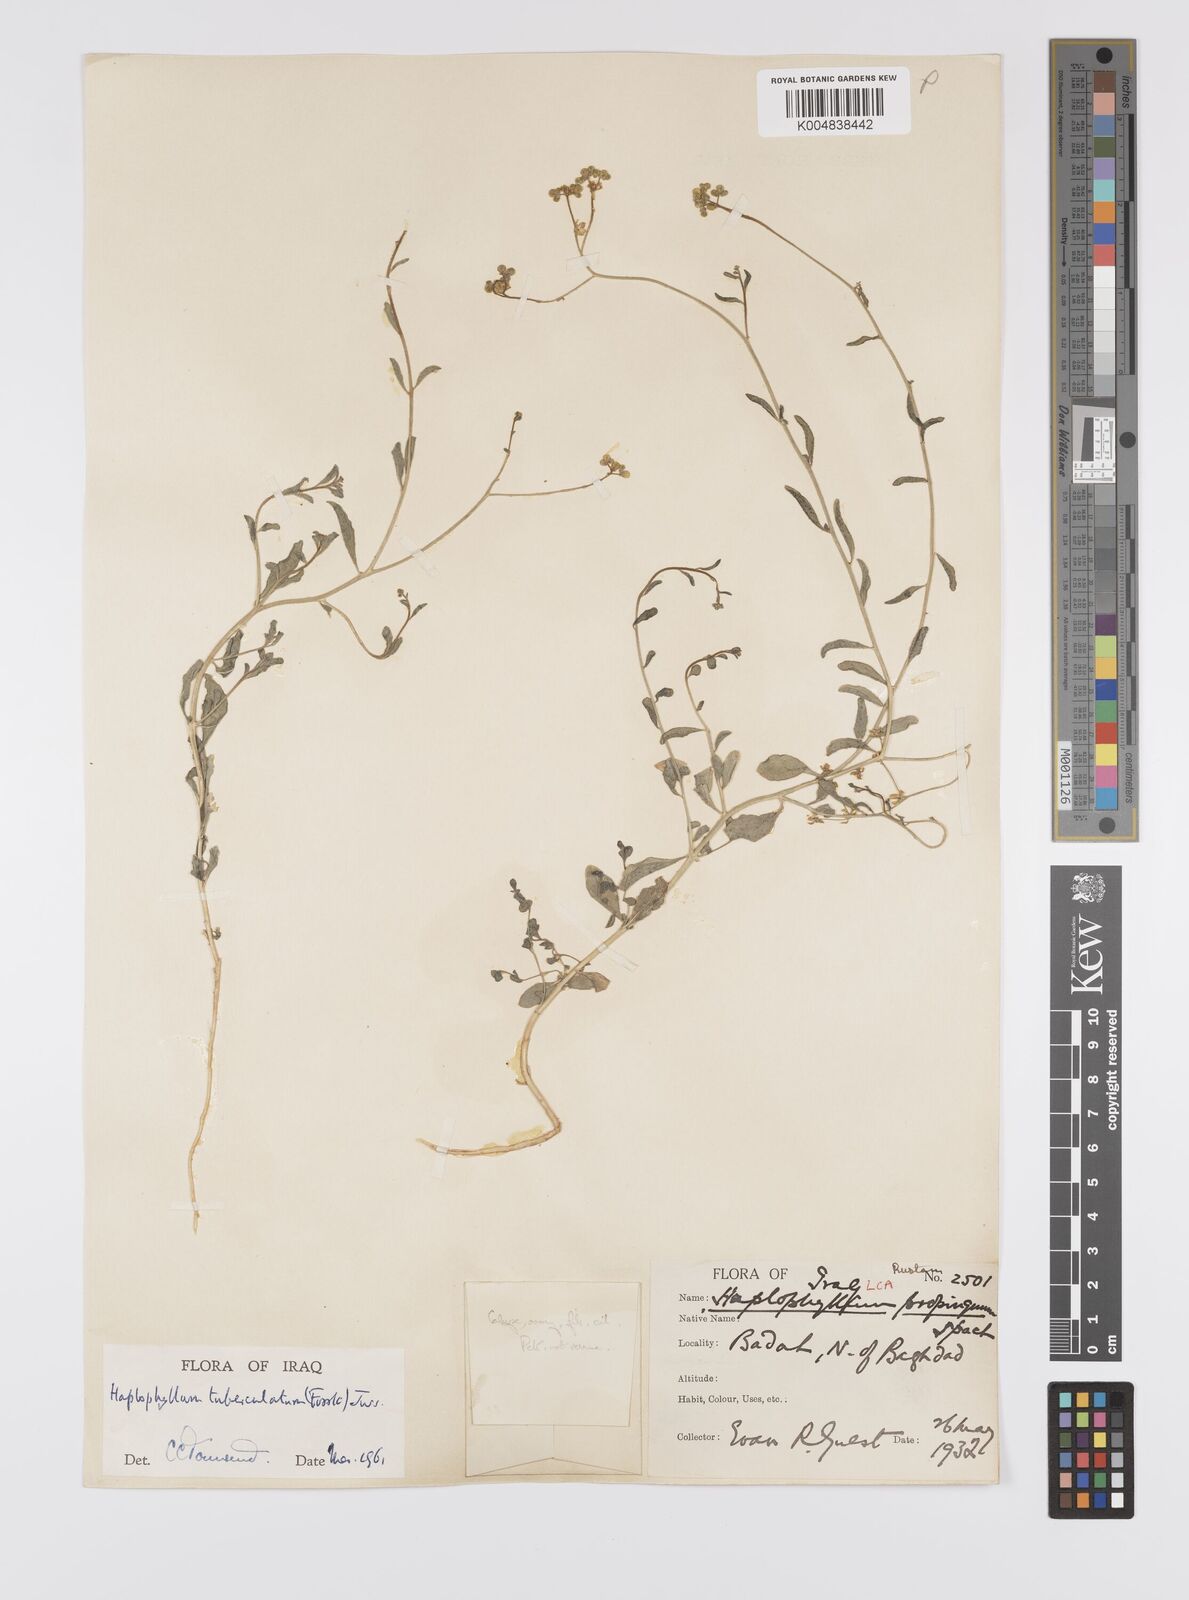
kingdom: Plantae
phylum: Tracheophyta
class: Magnoliopsida
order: Sapindales
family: Rutaceae
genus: Haplophyllum
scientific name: Haplophyllum tuberculatum
